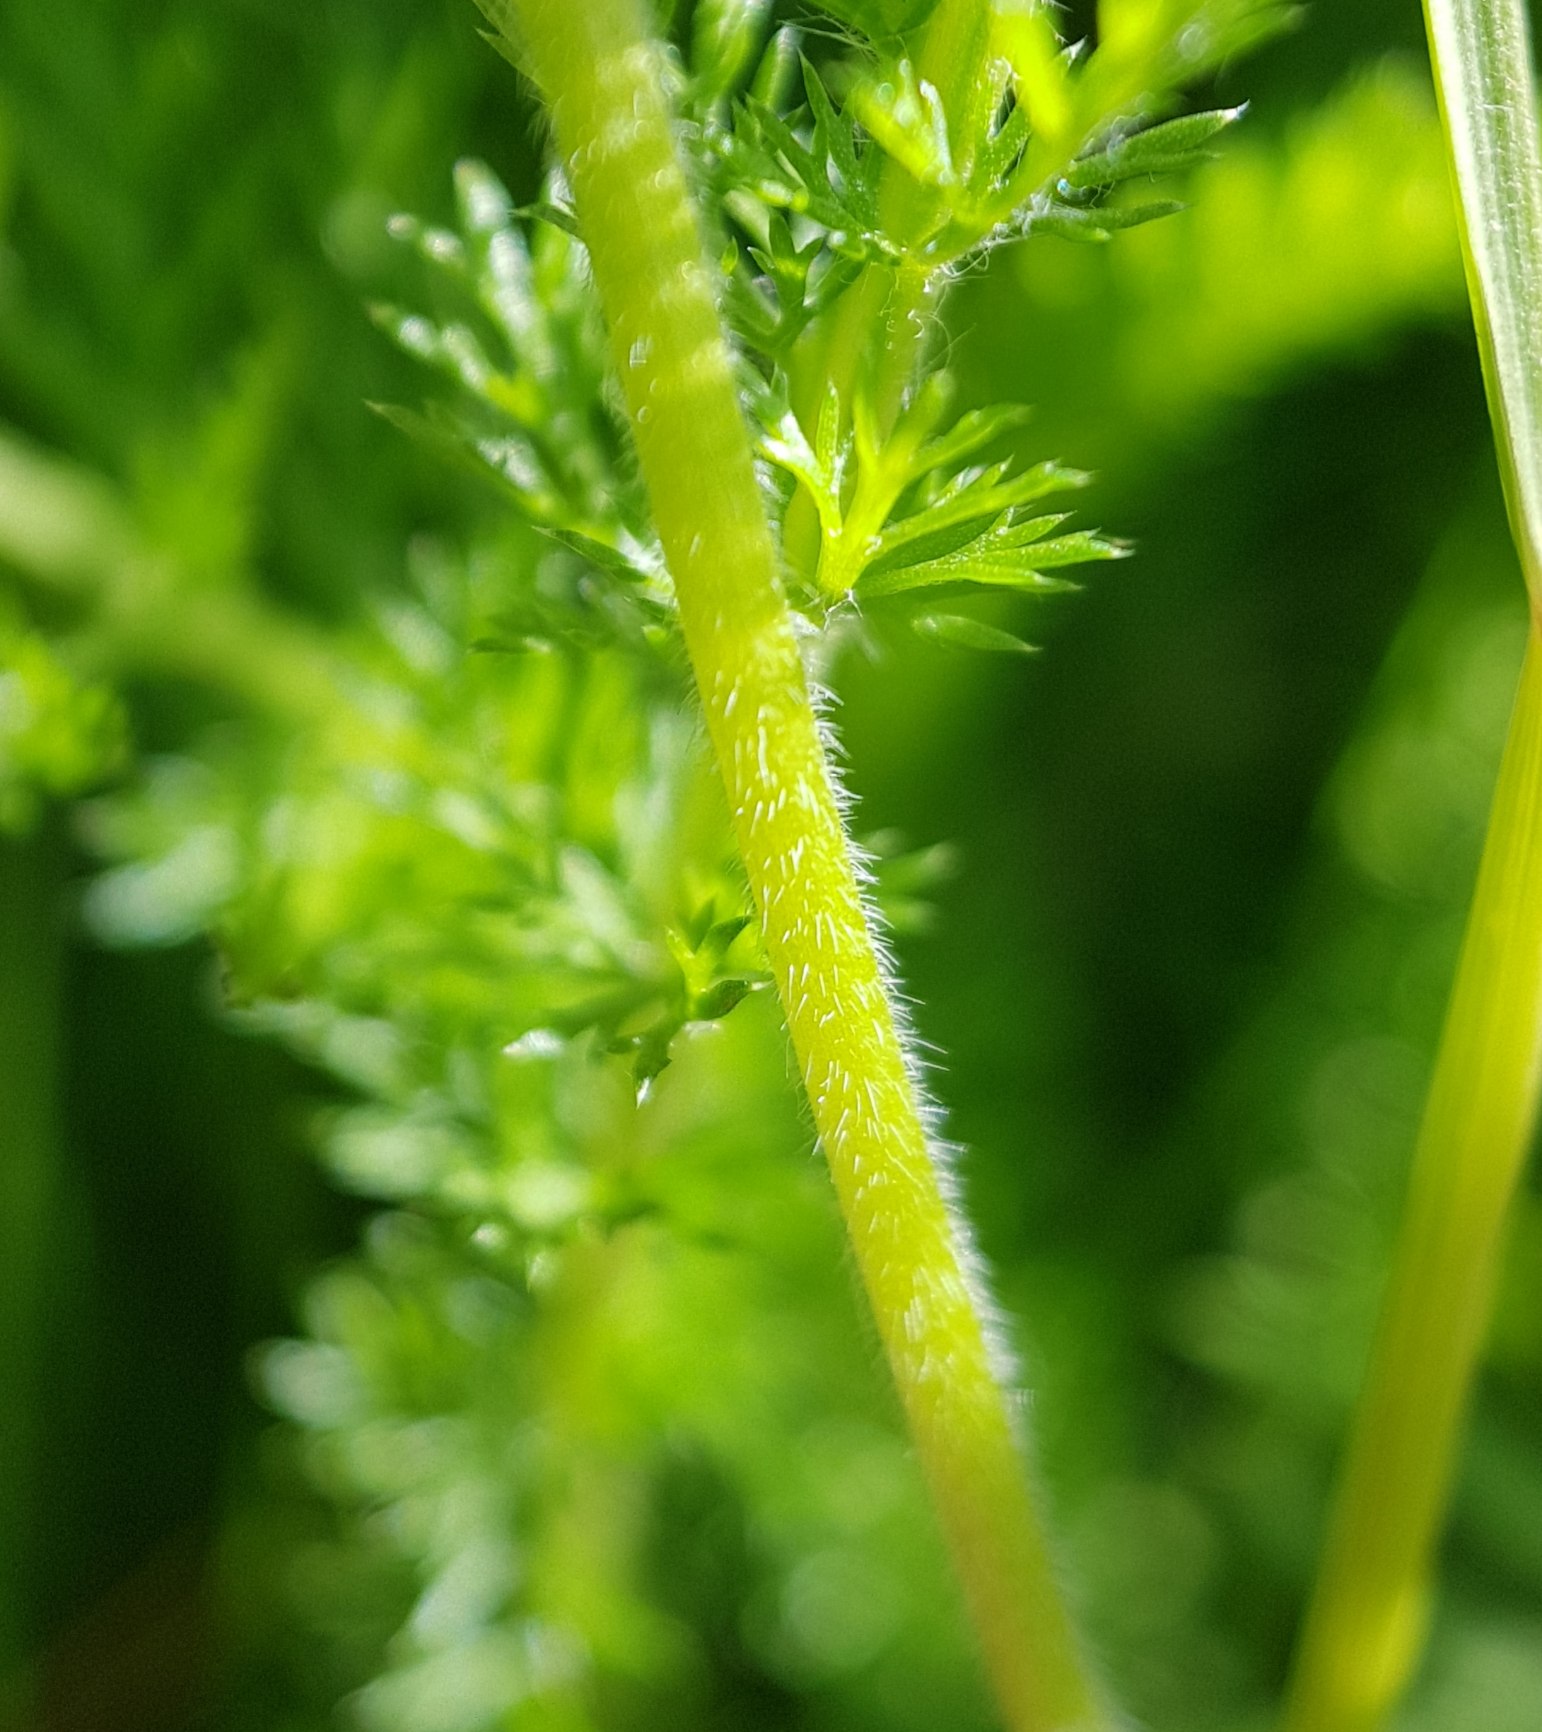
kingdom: Plantae
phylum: Tracheophyta
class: Magnoliopsida
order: Geraniales
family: Geraniaceae
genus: Geranium
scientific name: Geranium dissectum
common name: Kløftet storkenæb
